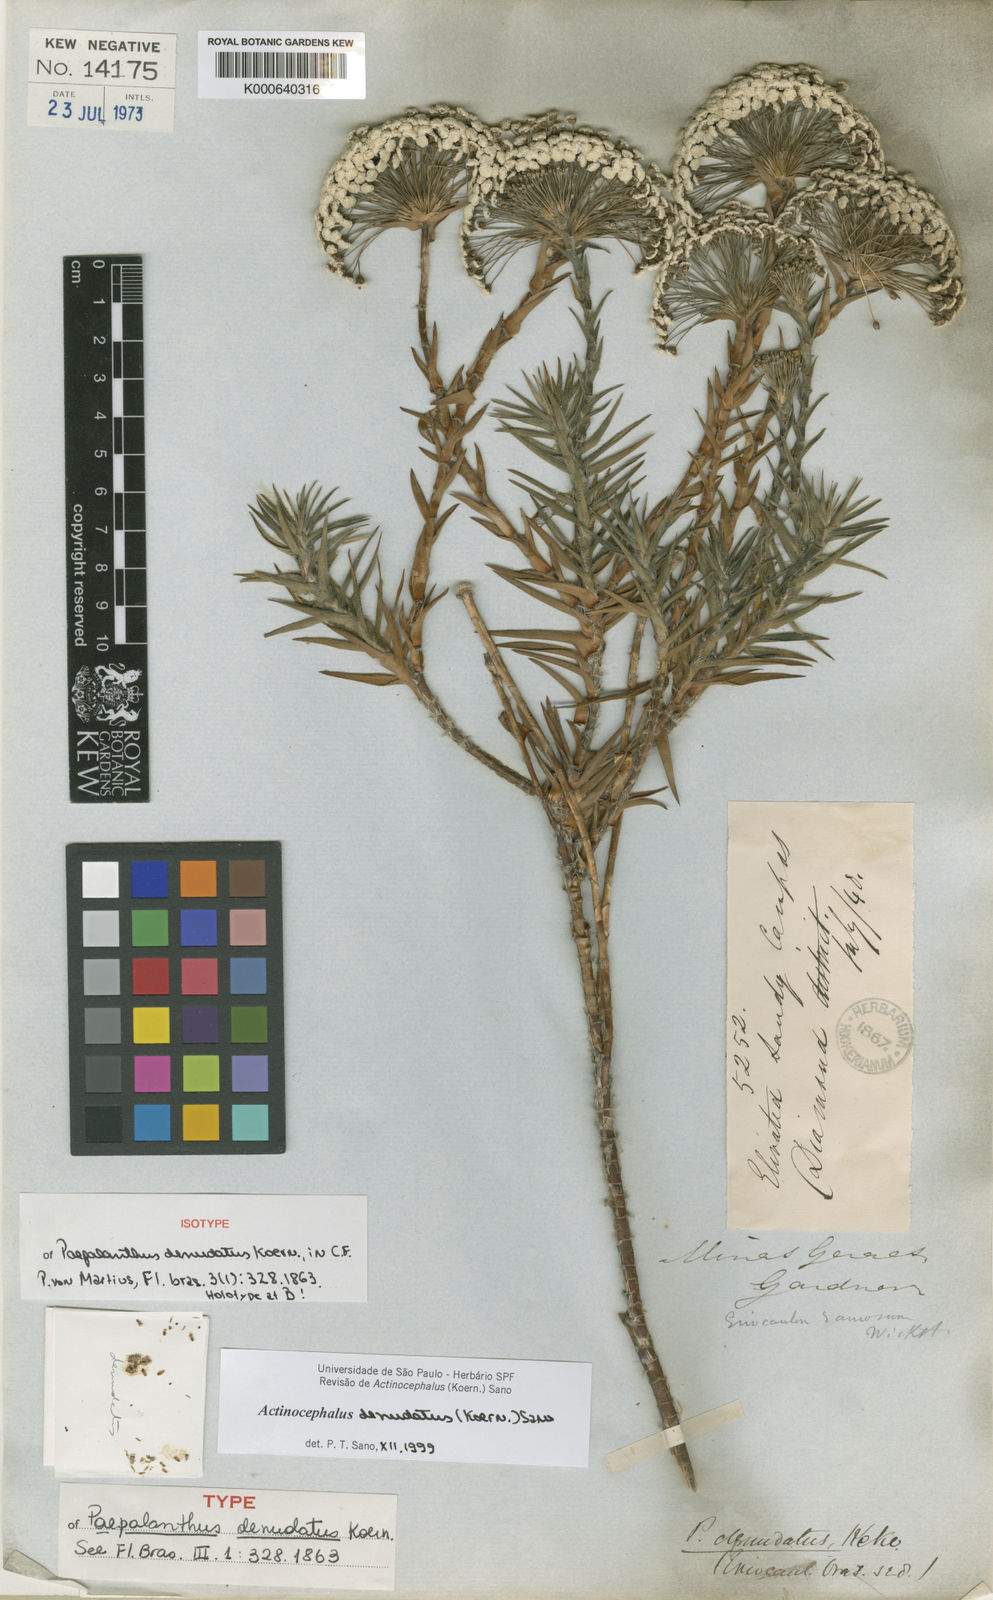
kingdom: Plantae
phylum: Tracheophyta
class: Liliopsida
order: Poales
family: Eriocaulaceae
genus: Paepalanthus
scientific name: Paepalanthus
